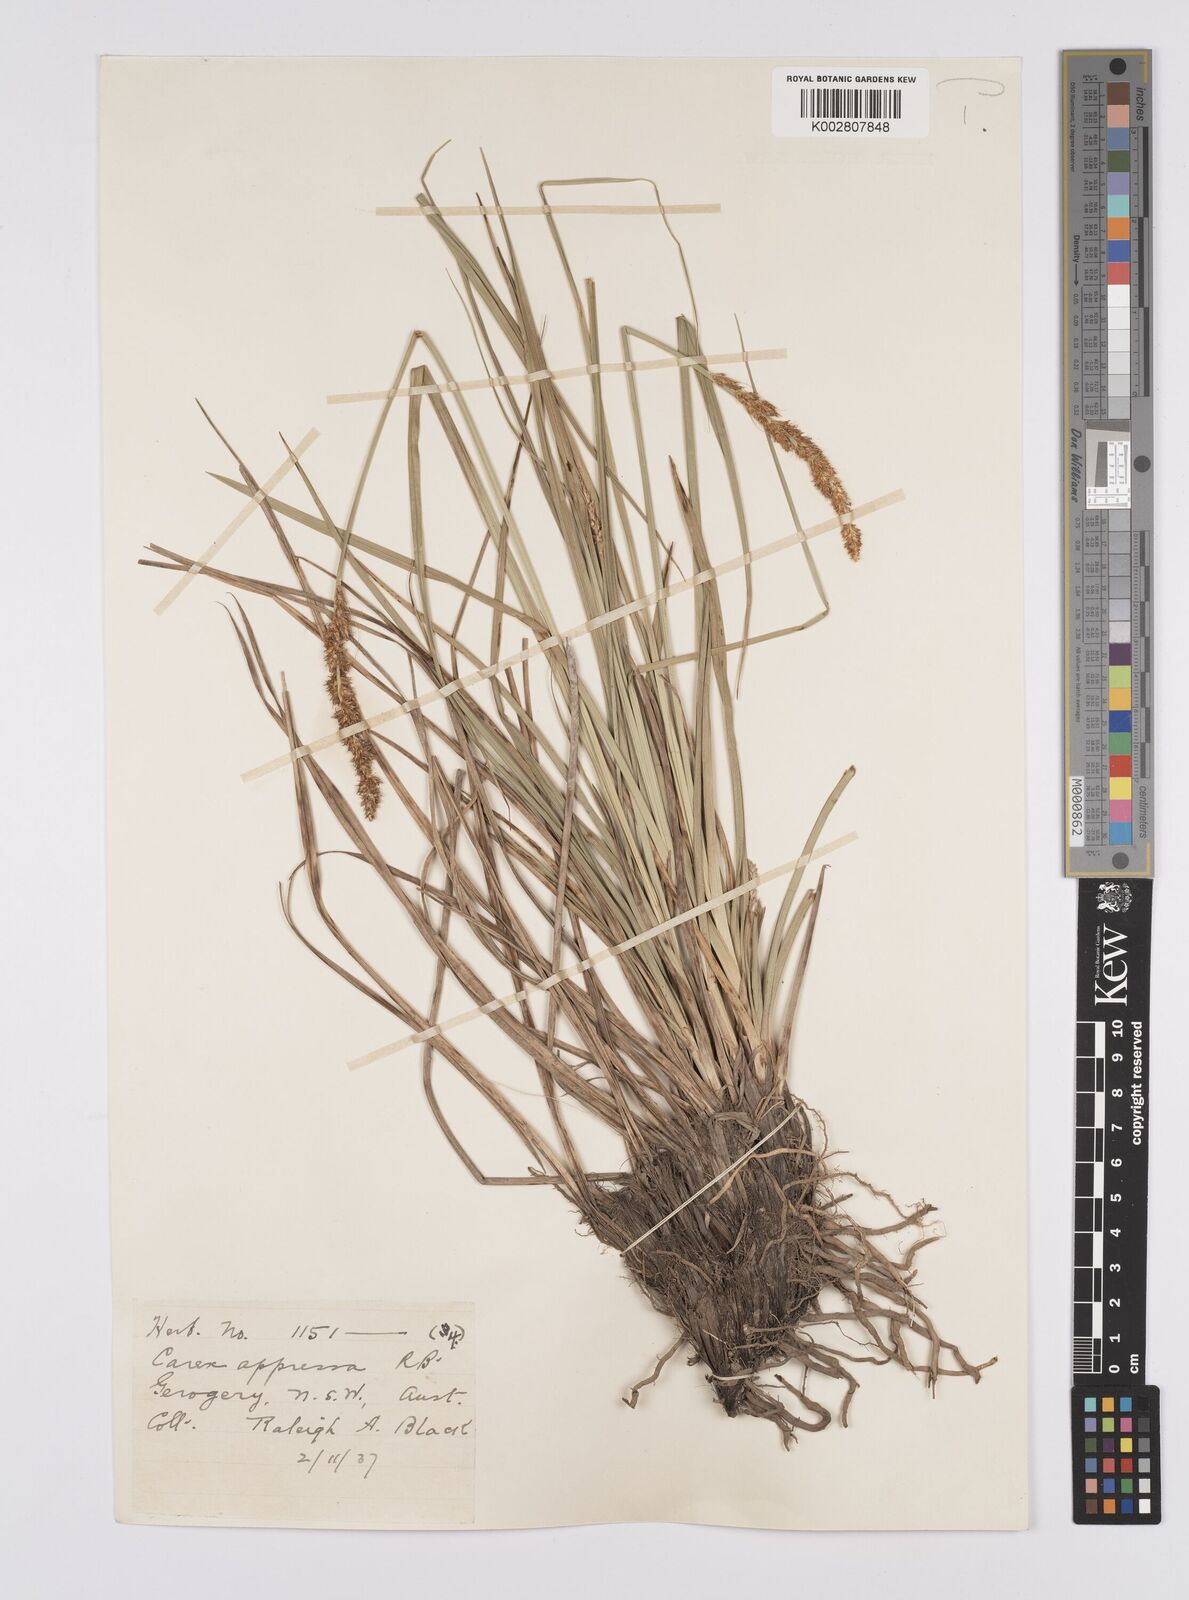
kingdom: Plantae
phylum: Tracheophyta
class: Liliopsida
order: Poales
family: Cyperaceae
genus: Carex
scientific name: Carex appressa
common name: Tussock sedge
